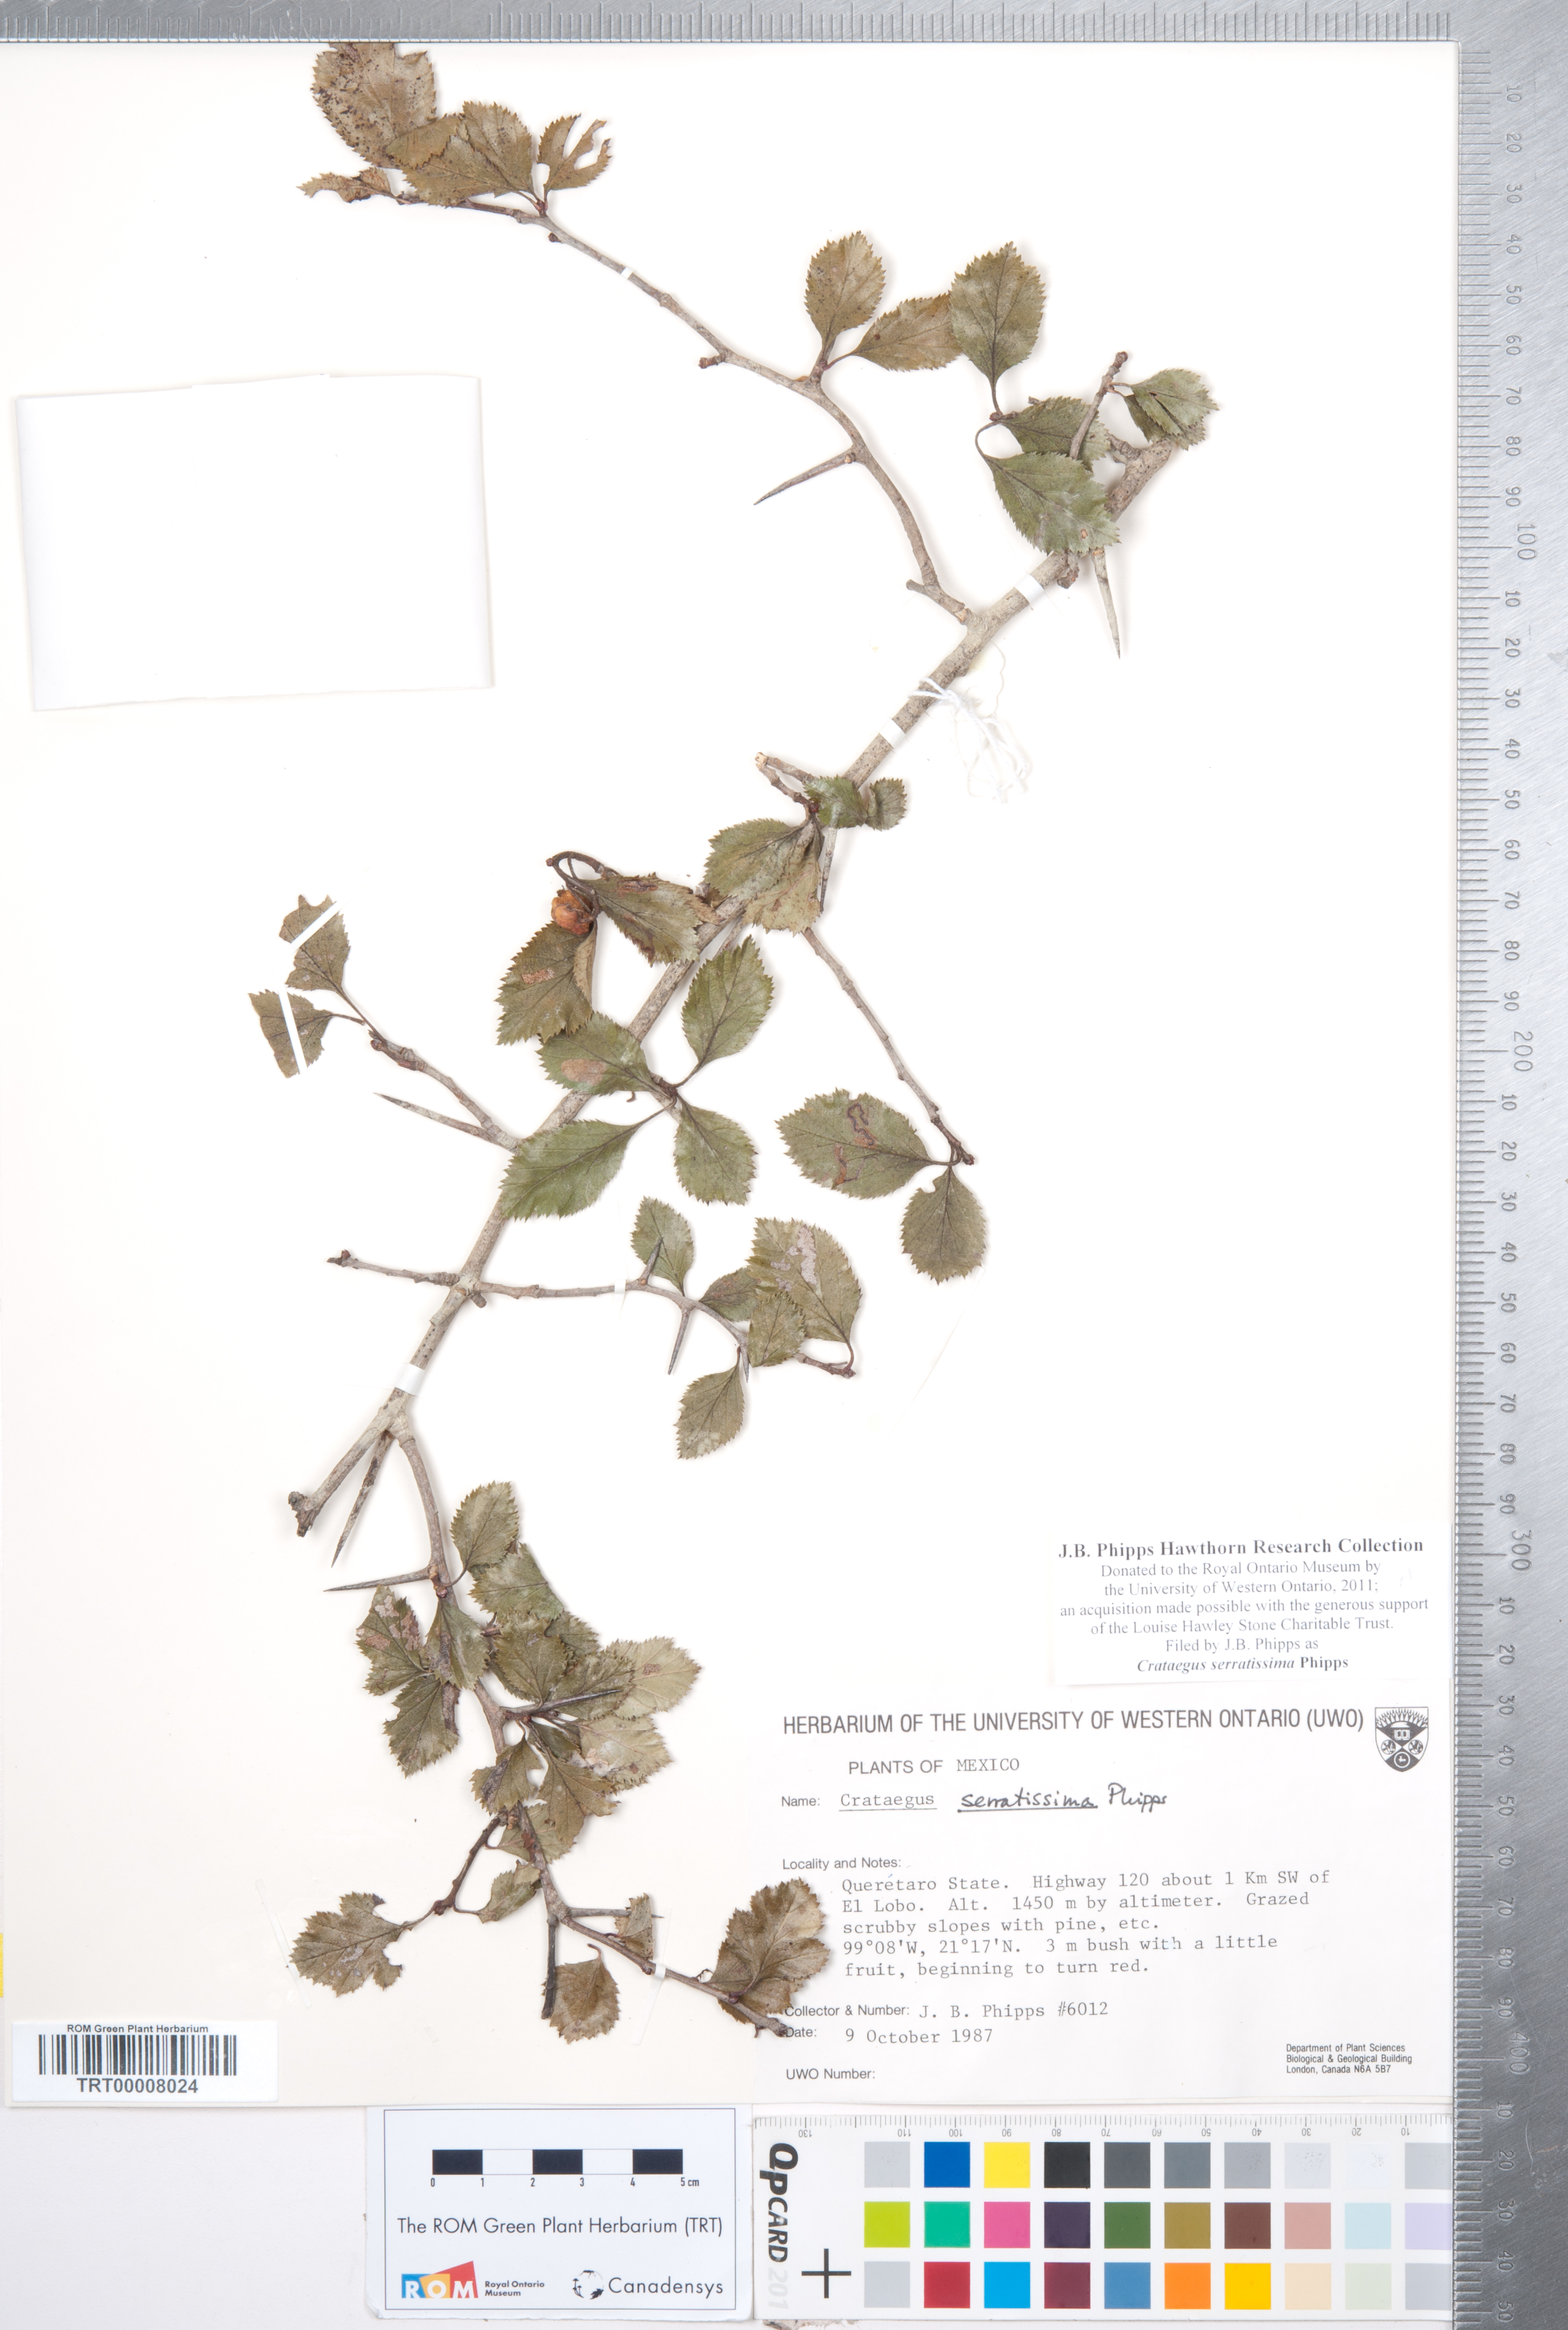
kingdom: Plantae
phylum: Tracheophyta
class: Magnoliopsida
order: Rosales
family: Rosaceae
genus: Crataegus
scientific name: Crataegus serratissima
